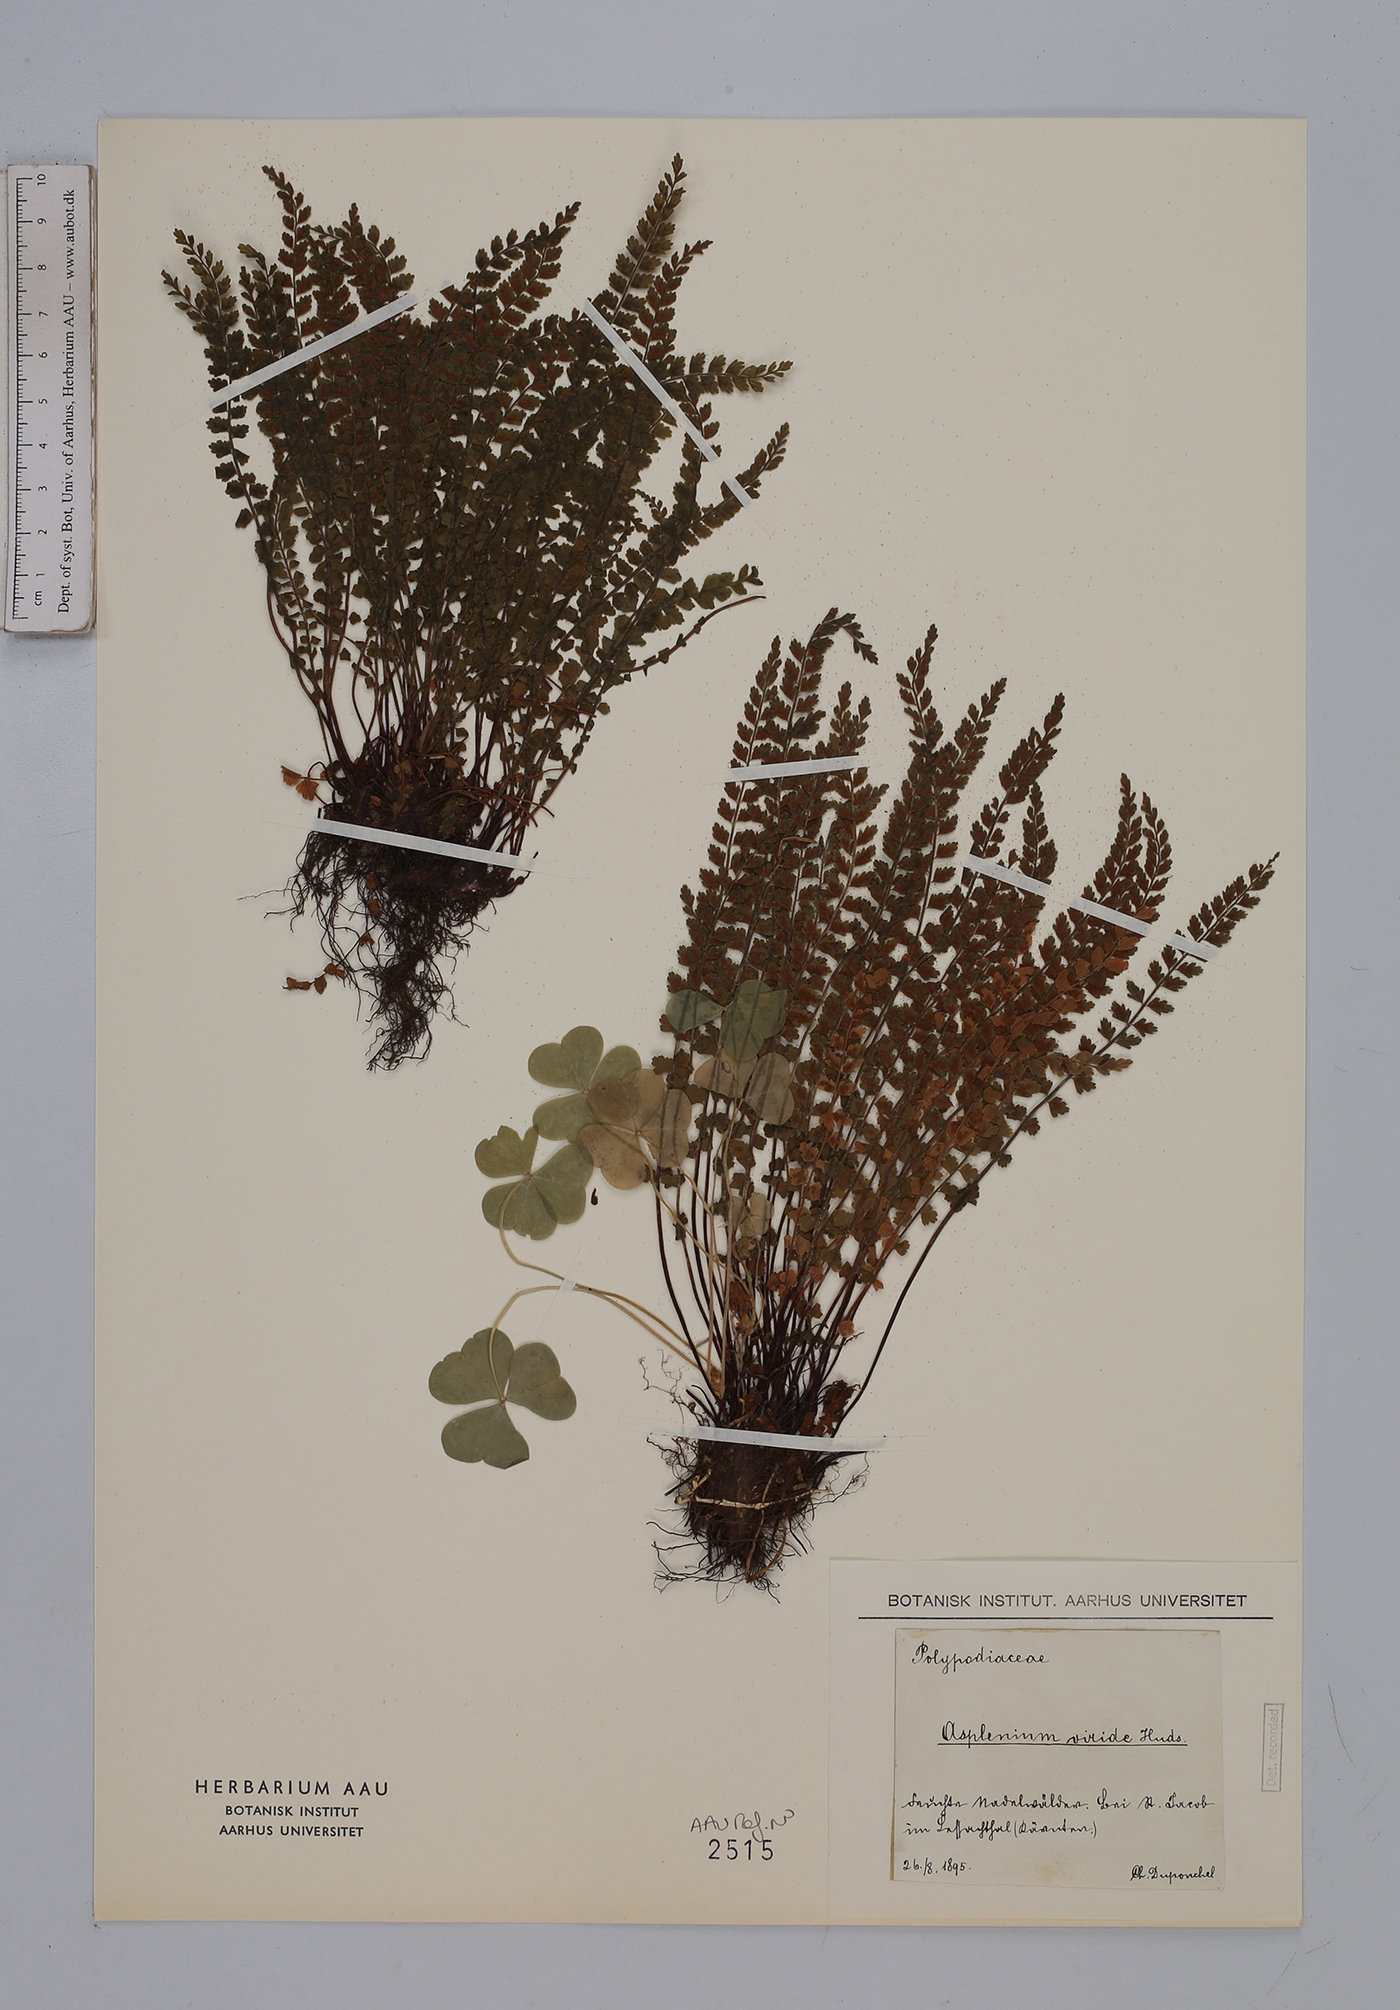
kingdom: Plantae
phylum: Tracheophyta
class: Polypodiopsida
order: Polypodiales
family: Aspleniaceae
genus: Asplenium
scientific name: Asplenium viride
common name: Green spleenwort
